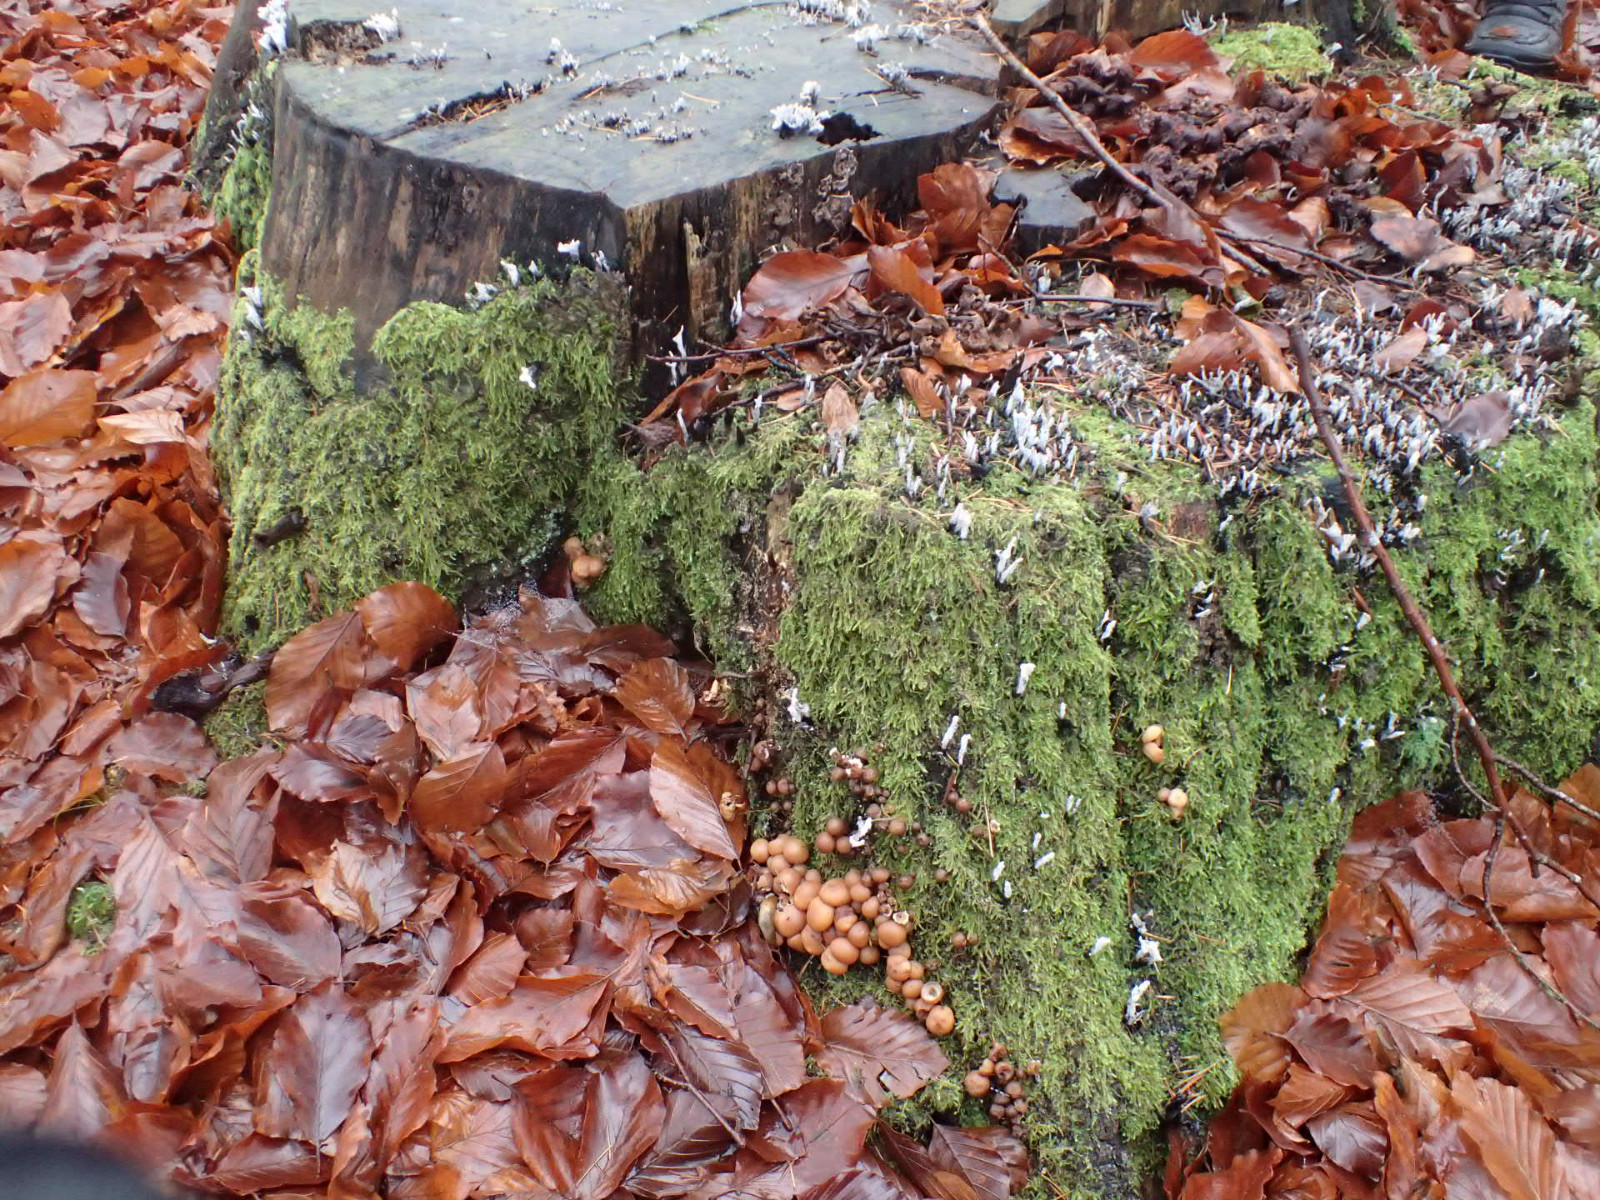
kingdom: Fungi
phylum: Ascomycota
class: Sordariomycetes
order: Xylariales
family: Xylariaceae
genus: Xylaria
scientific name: Xylaria hypoxylon
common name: grenet stødsvamp
